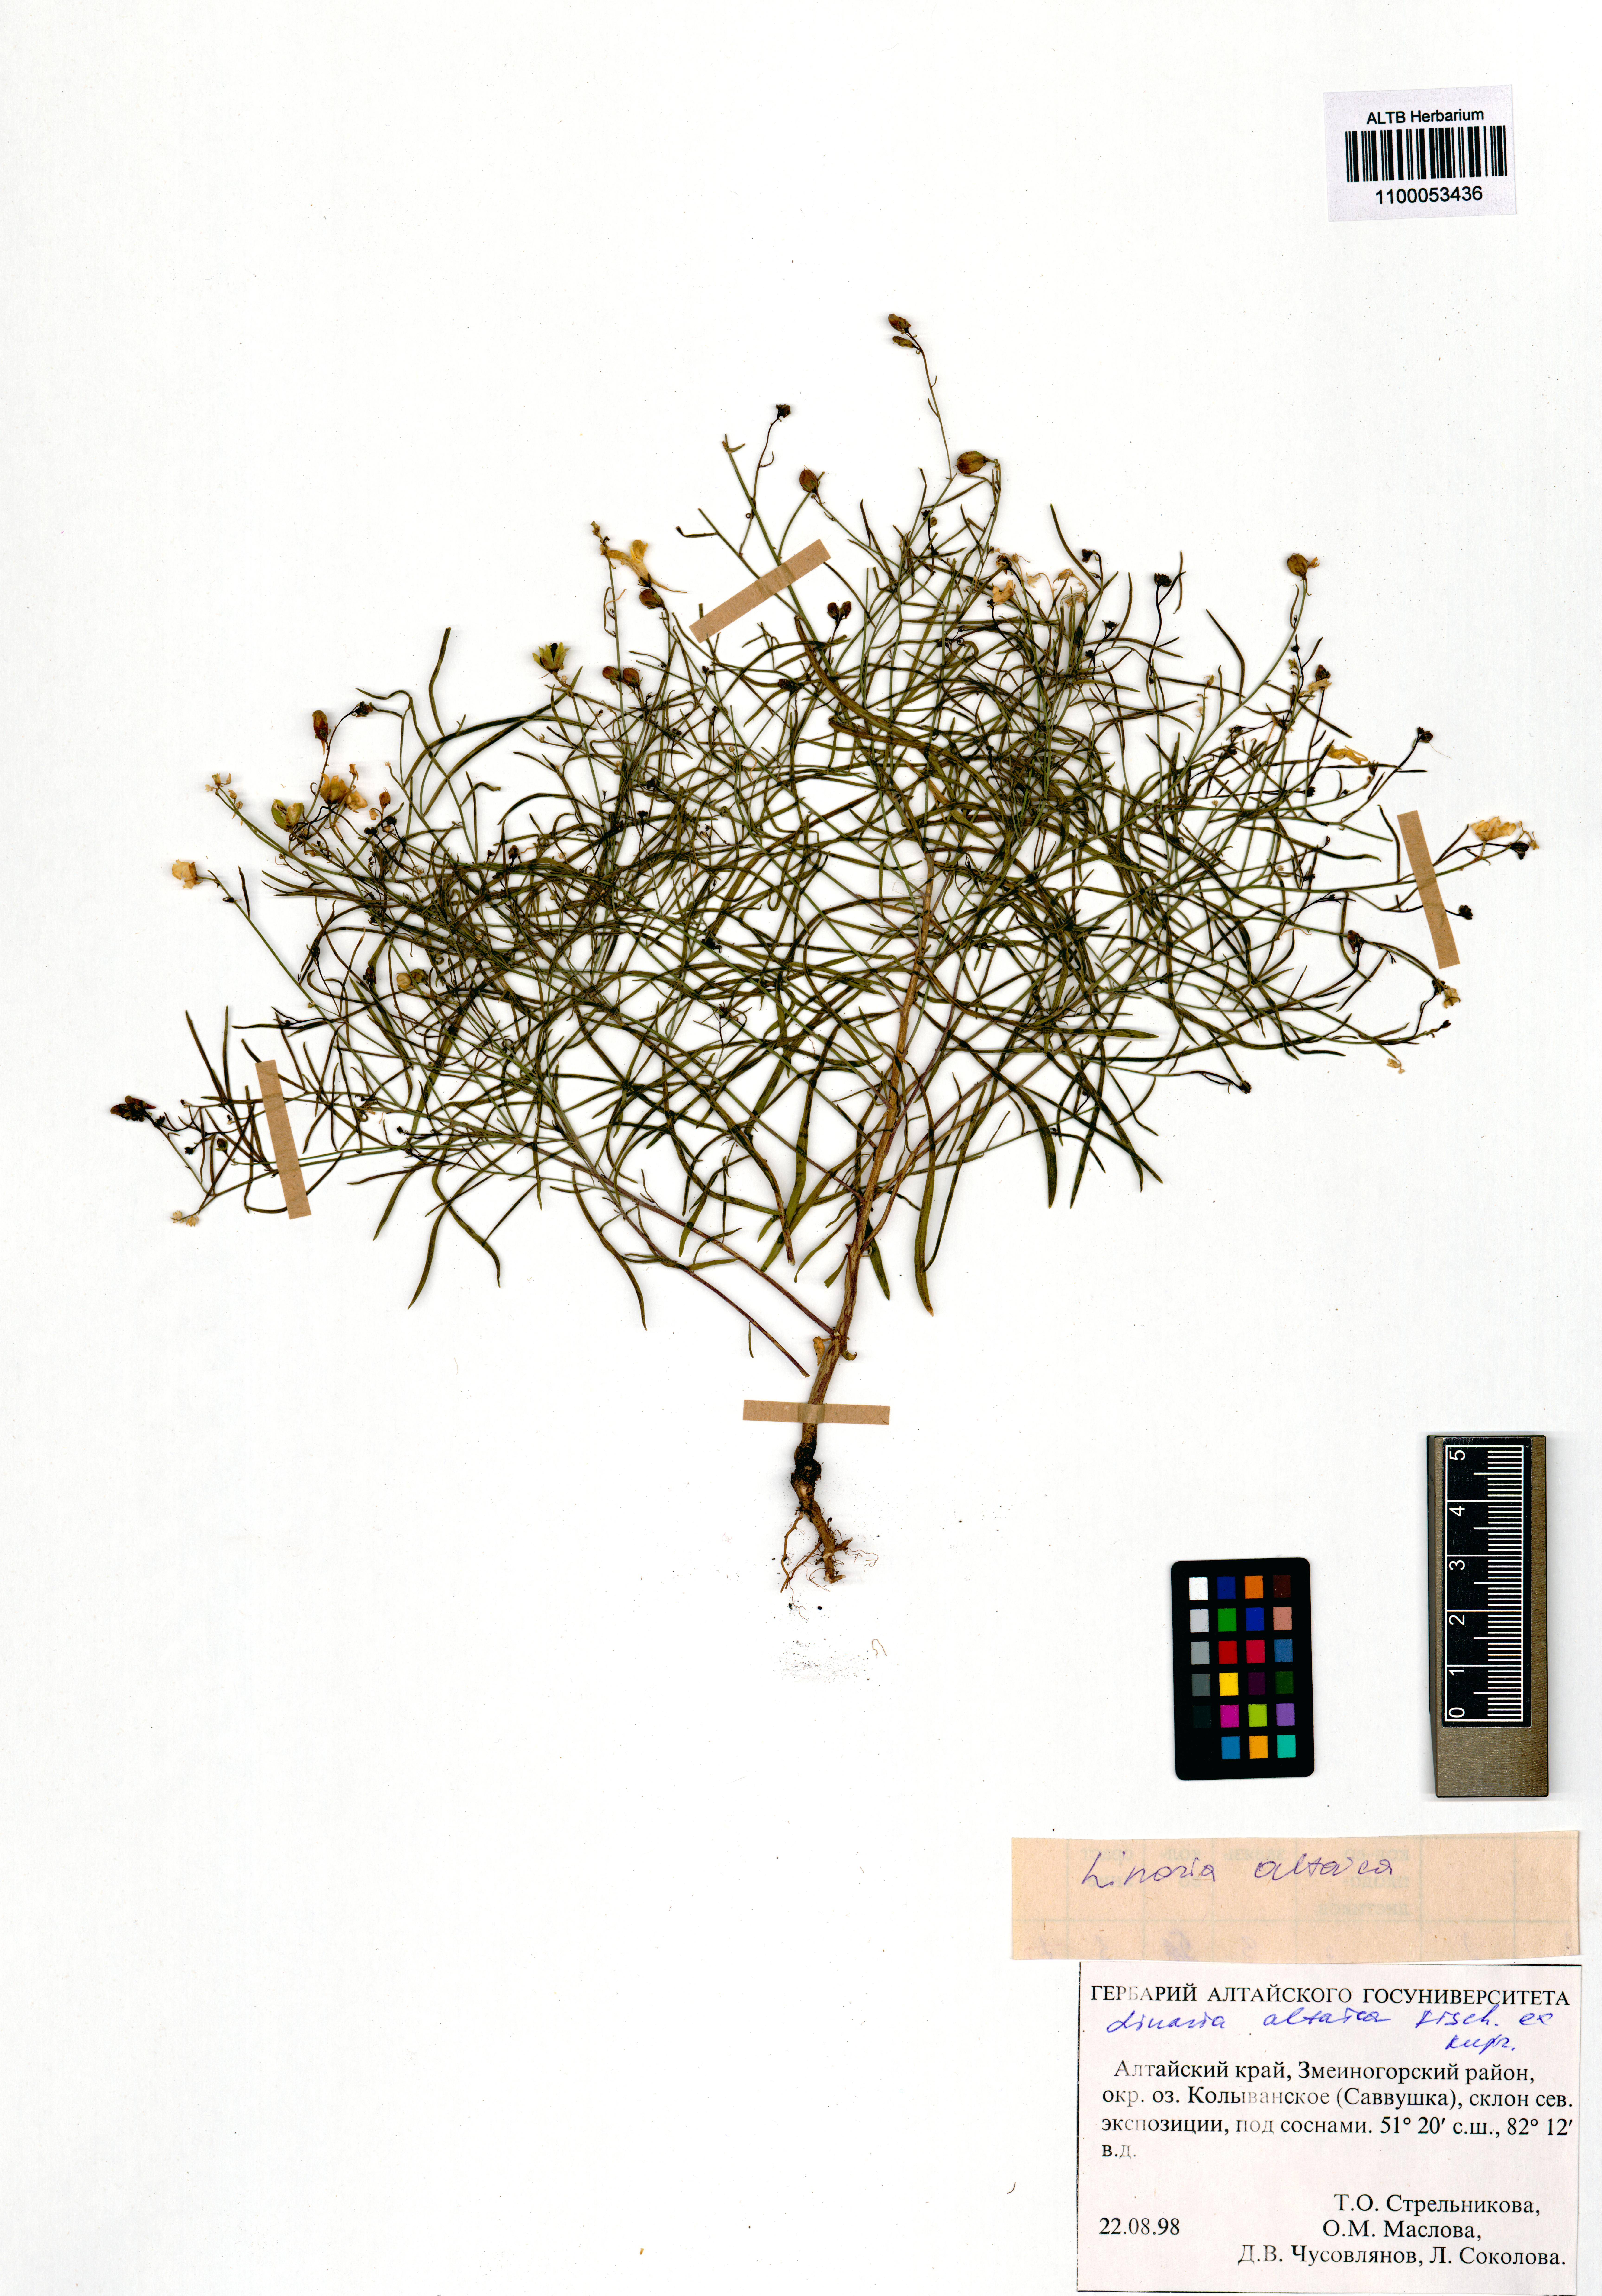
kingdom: Plantae
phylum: Tracheophyta
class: Magnoliopsida
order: Lamiales
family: Plantaginaceae
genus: Linaria
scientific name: Linaria altaica
